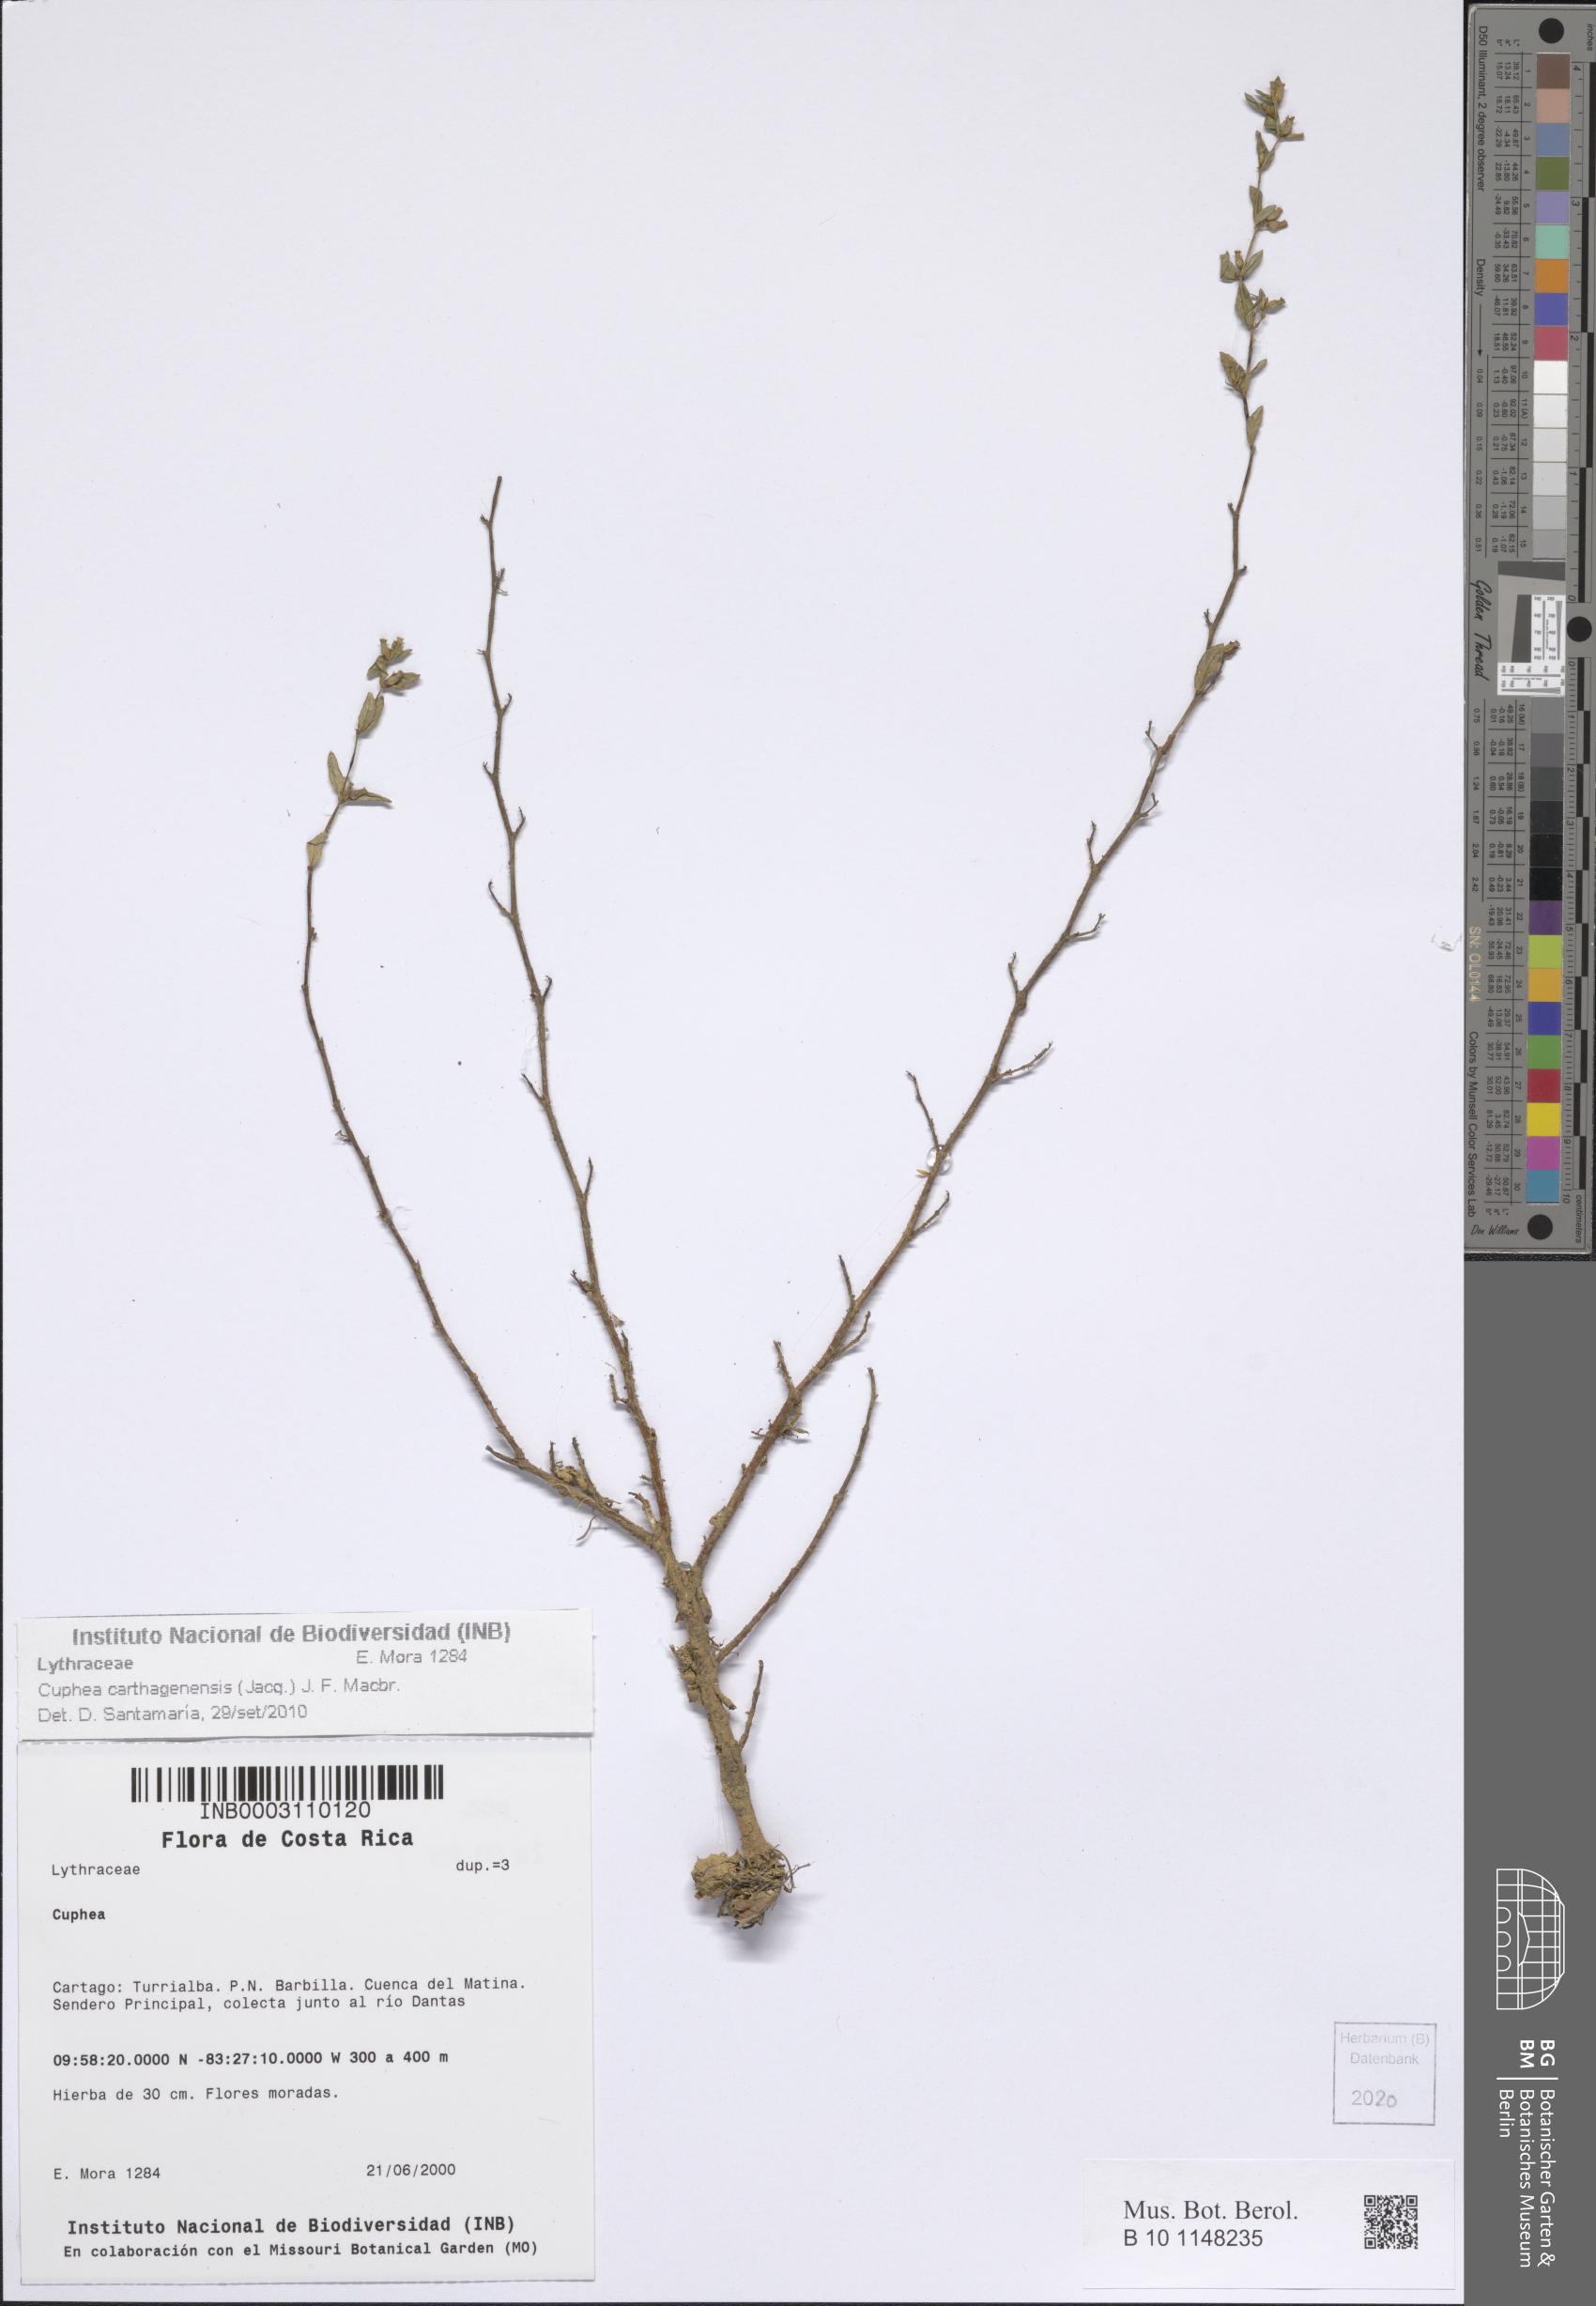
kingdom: Plantae
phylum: Tracheophyta
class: Magnoliopsida
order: Myrtales
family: Lythraceae
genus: Cuphea
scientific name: Cuphea carthagenensis
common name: Colombian waxweed
